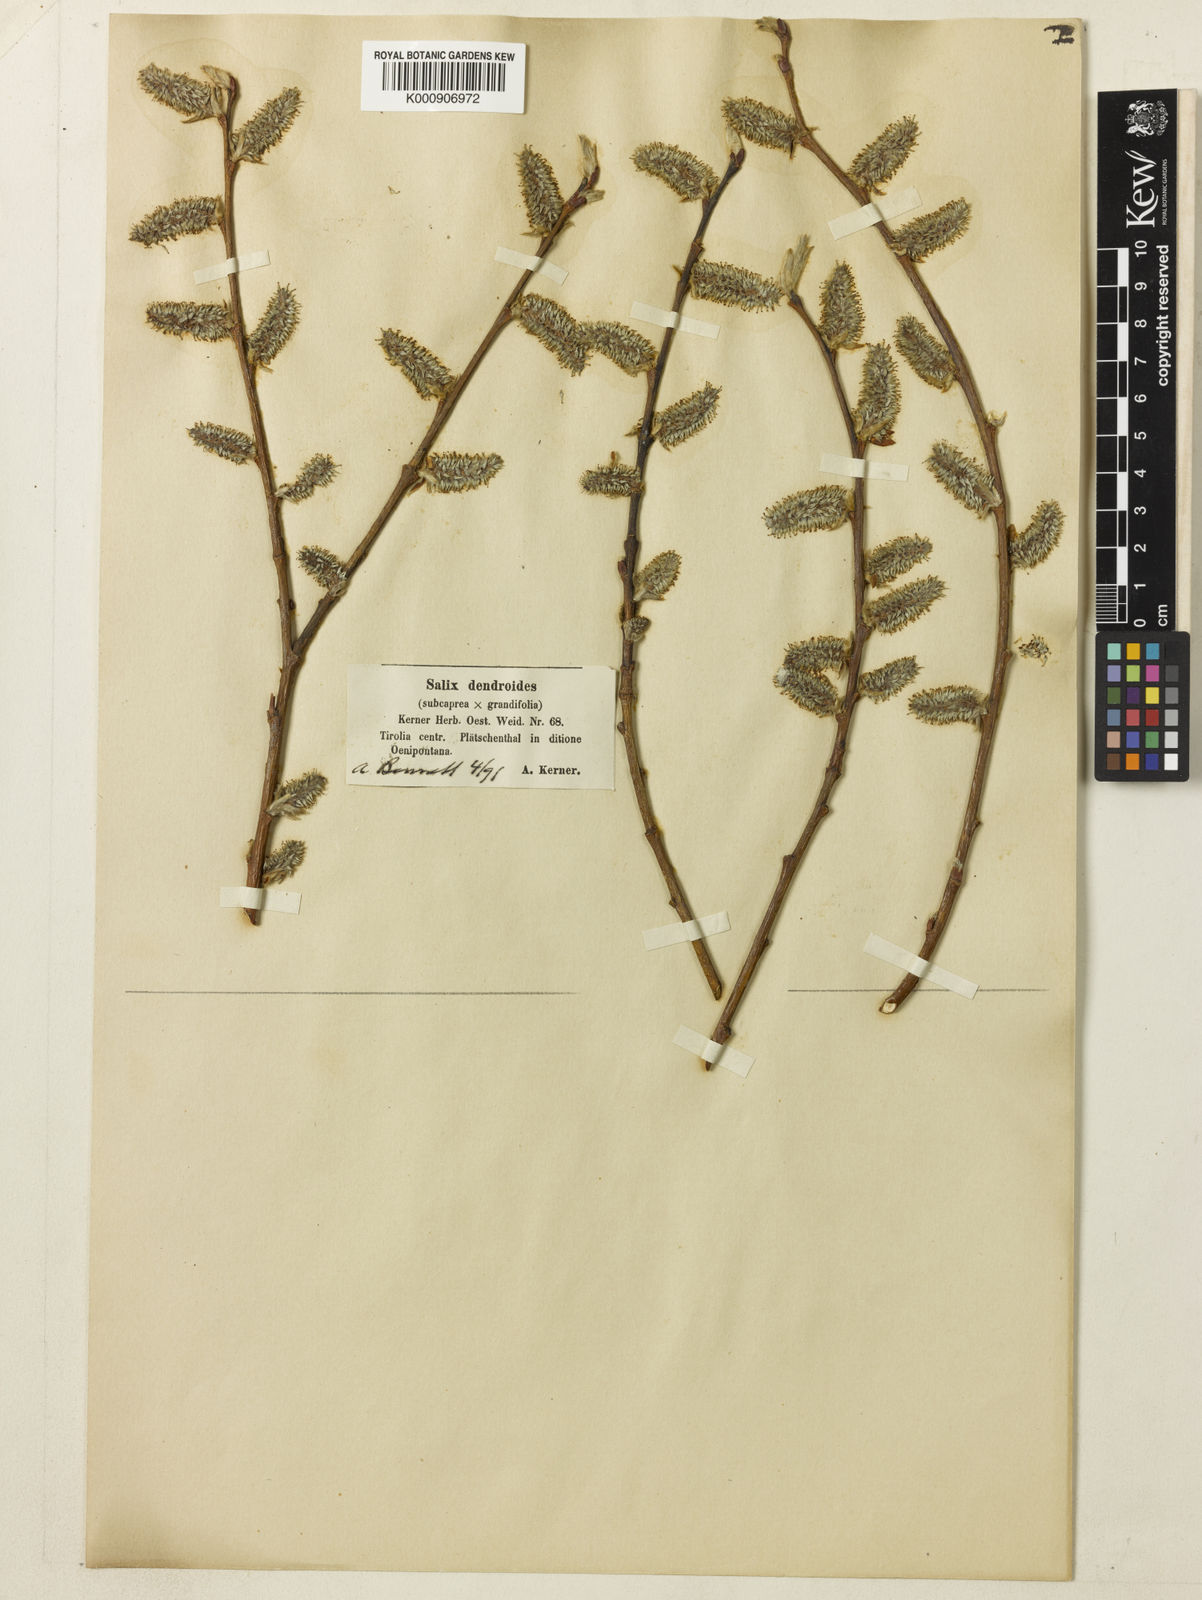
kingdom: Plantae
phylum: Tracheophyta
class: Magnoliopsida
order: Malpighiales
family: Salicaceae
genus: Salix
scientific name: Salix appendiculata
